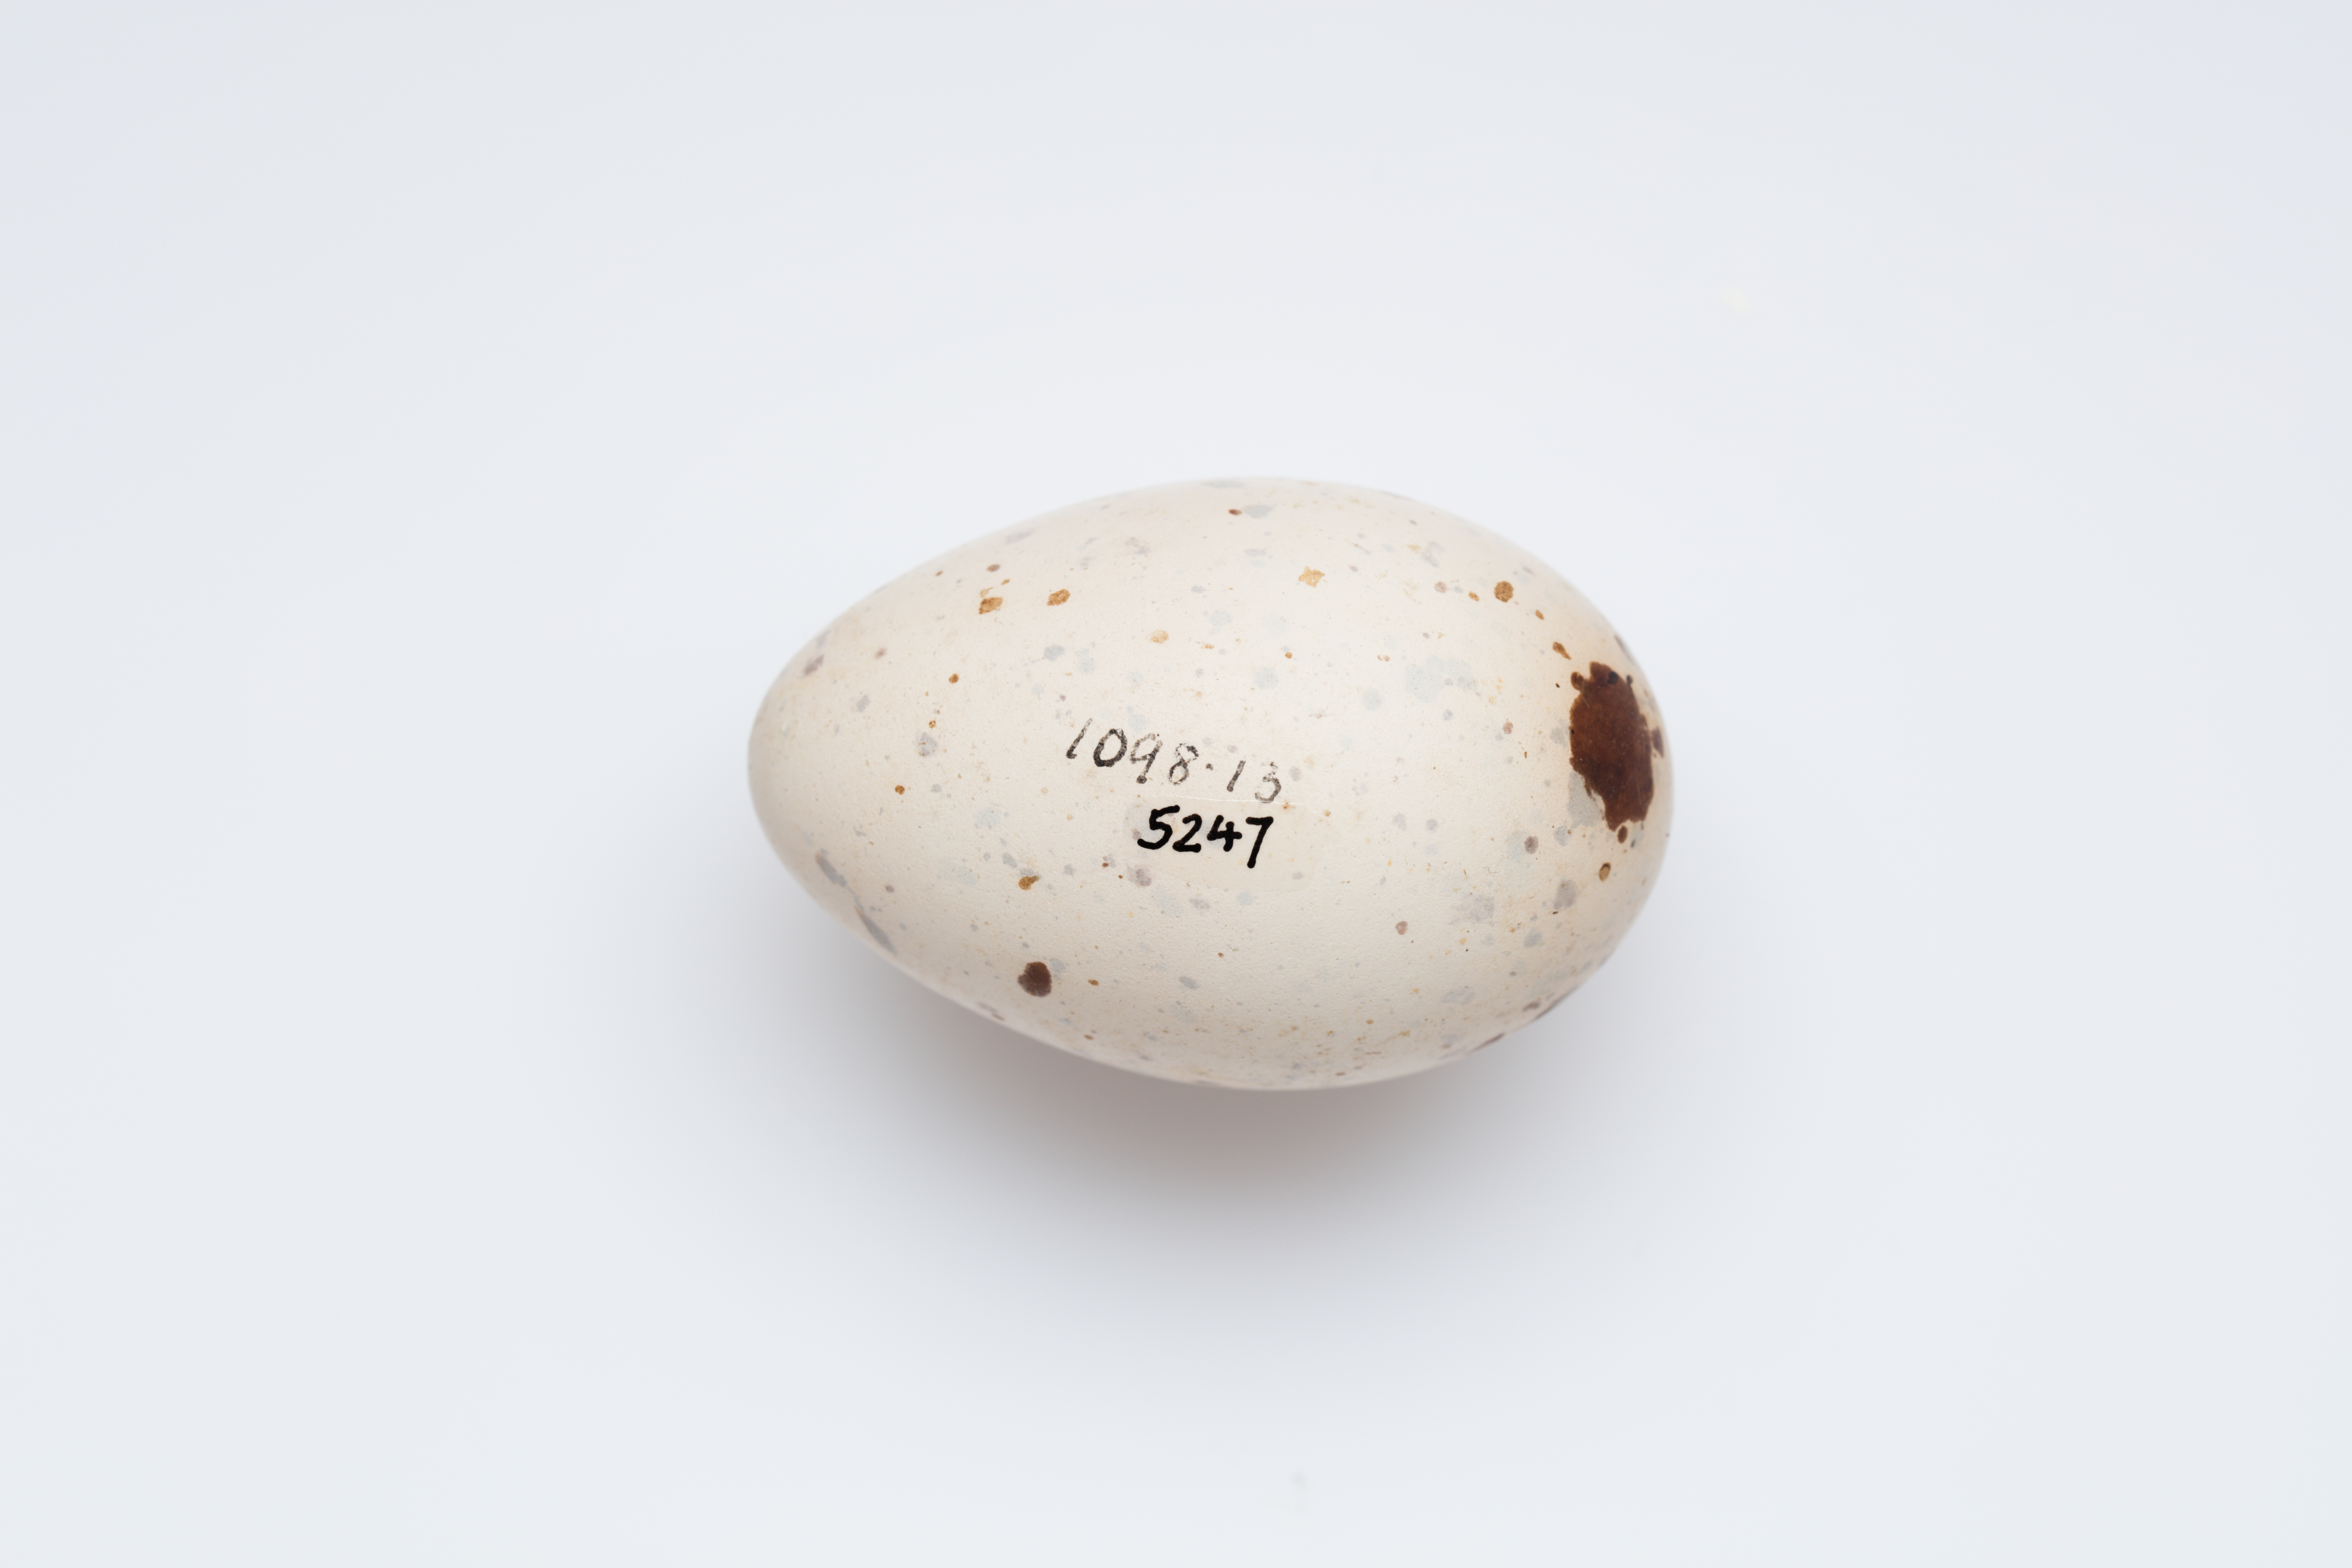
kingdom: Animalia
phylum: Chordata
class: Aves
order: Charadriiformes
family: Laridae
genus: Anous
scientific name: Anous stolidus
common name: Brown noddy
